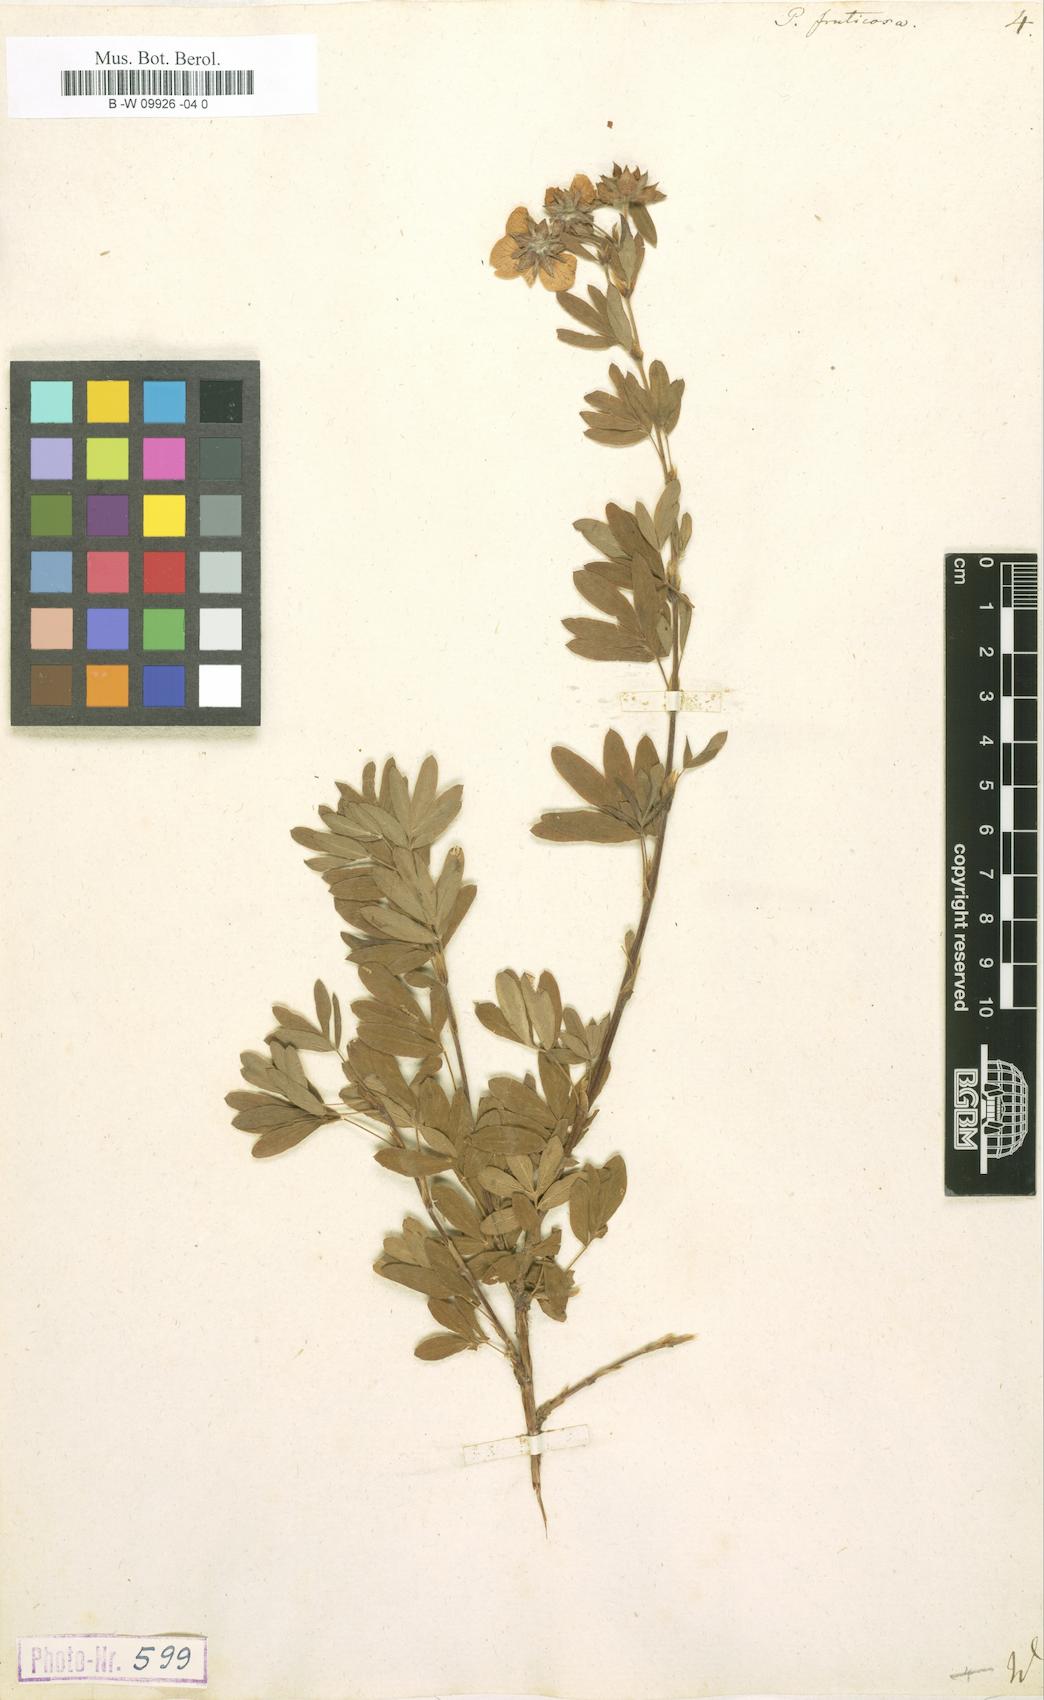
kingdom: Plantae
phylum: Tracheophyta
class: Magnoliopsida
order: Rosales
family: Rosaceae
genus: Dasiphora
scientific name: Dasiphora fruticosa
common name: Shrubby cinquefoil
